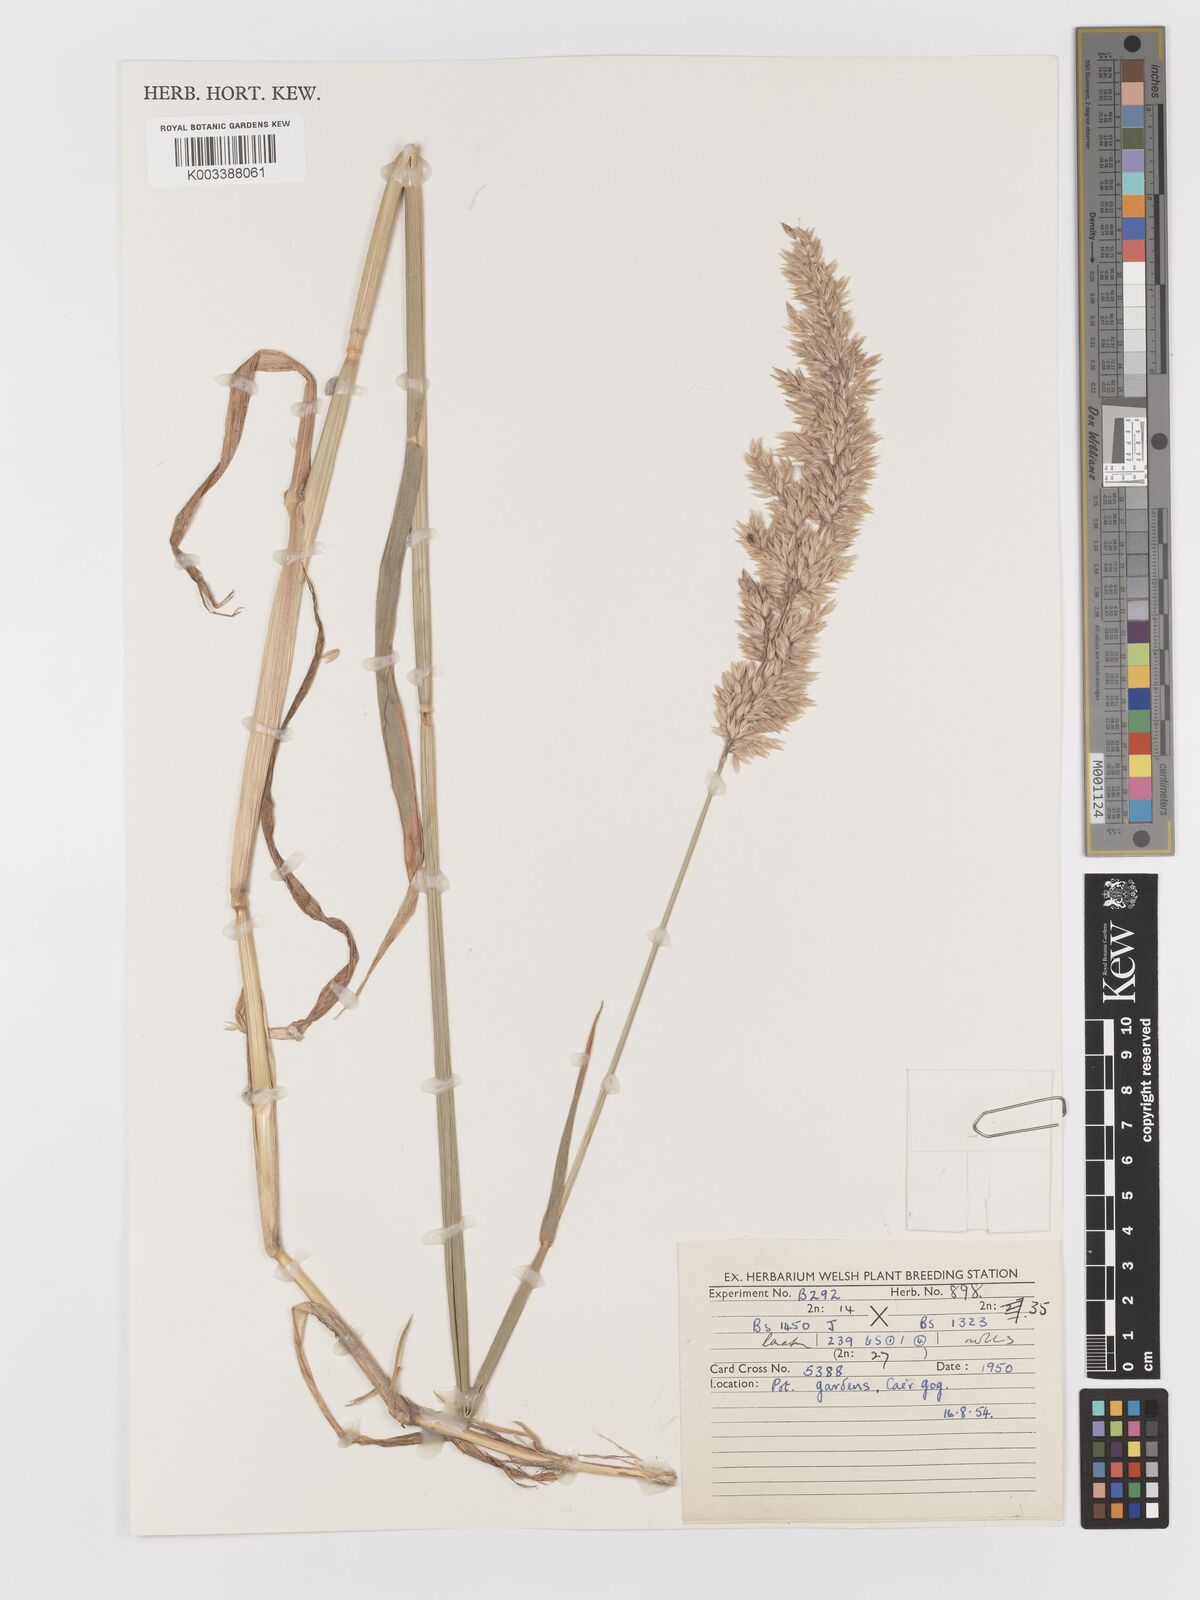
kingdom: Plantae
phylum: Tracheophyta
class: Liliopsida
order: Poales
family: Poaceae
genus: Holcus
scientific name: Holcus lanatus
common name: Yorkshire-fog
